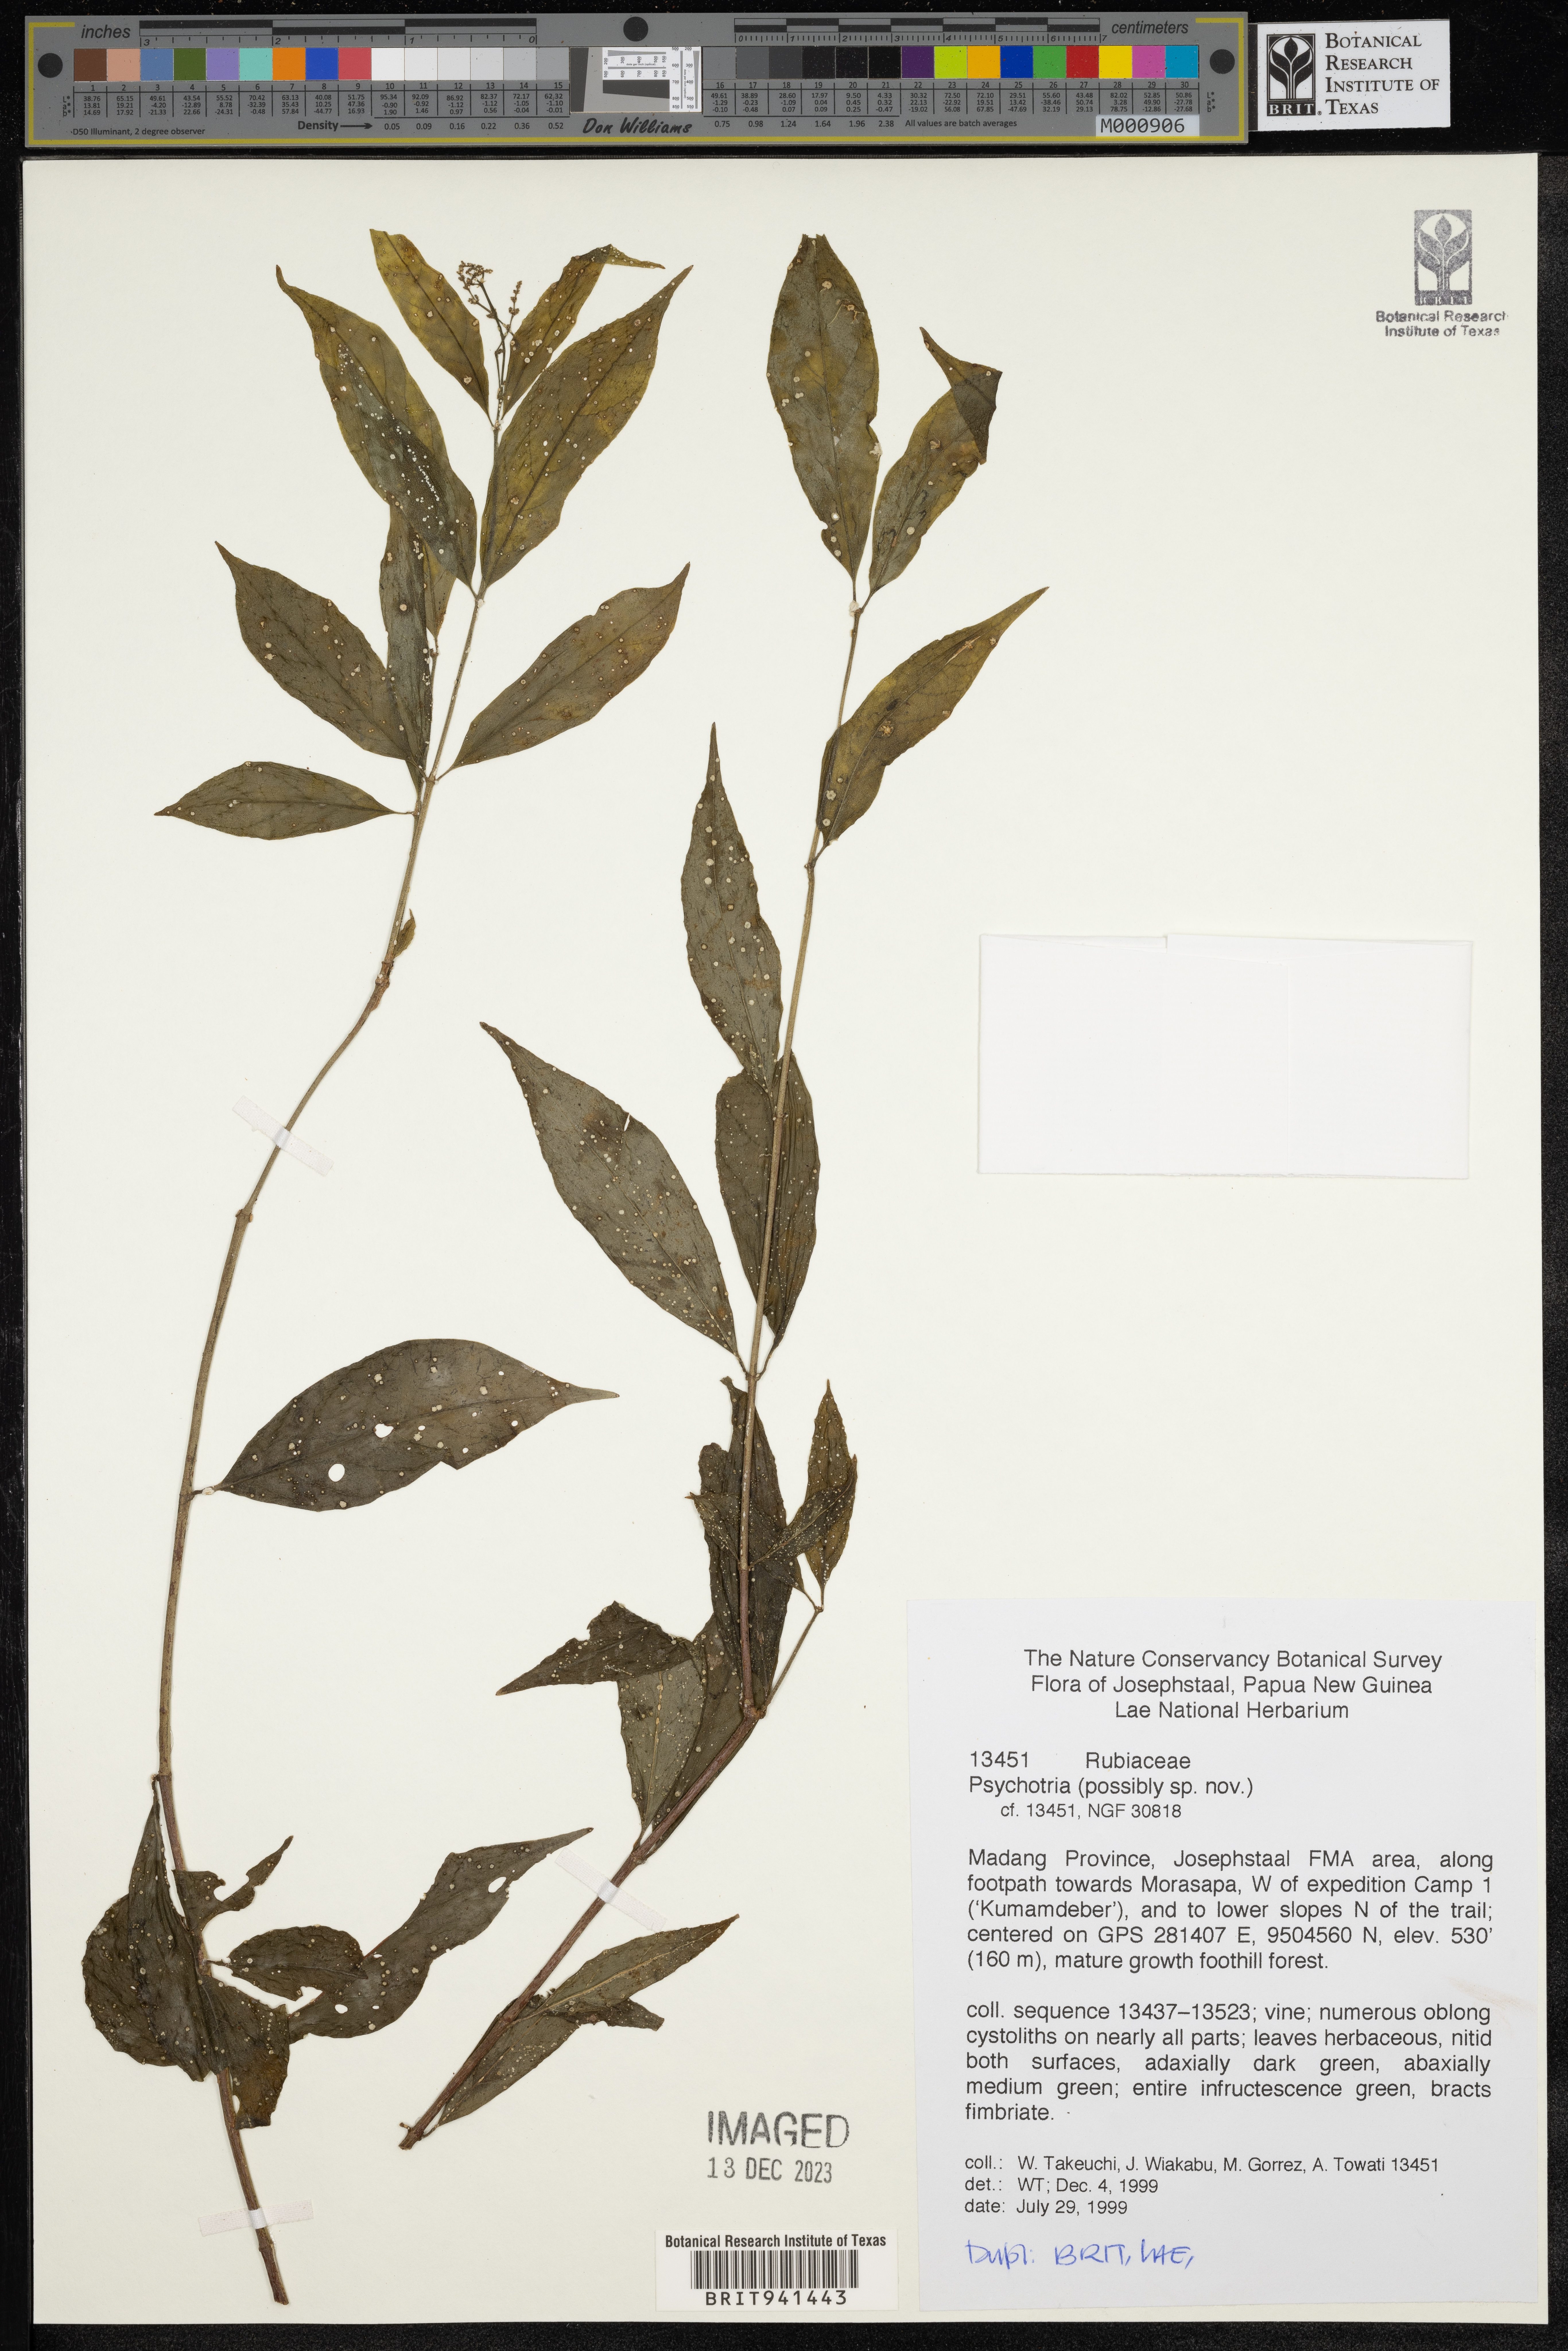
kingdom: Plantae
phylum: Tracheophyta
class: Magnoliopsida
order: Gentianales
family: Rubiaceae
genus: Psychotria
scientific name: Psychotria
